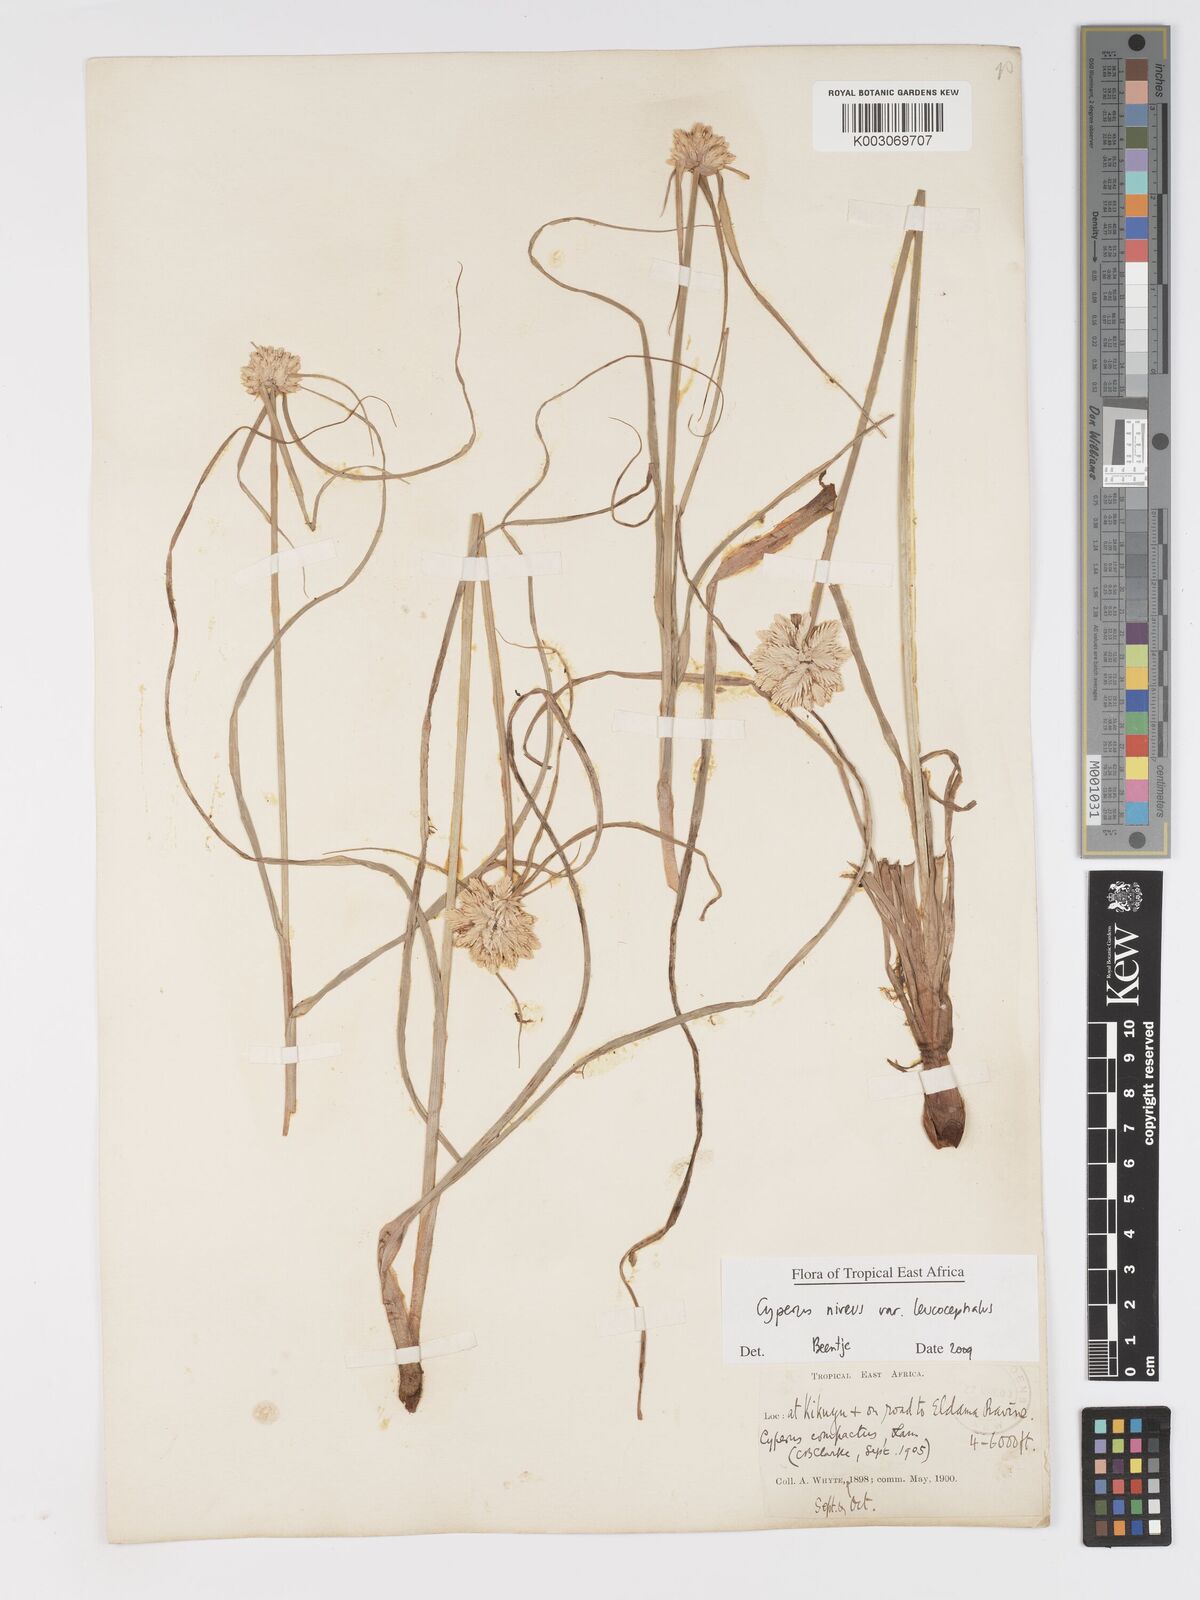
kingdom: Plantae
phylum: Tracheophyta
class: Liliopsida
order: Poales
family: Cyperaceae
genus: Cyperus
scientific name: Cyperus niveus
